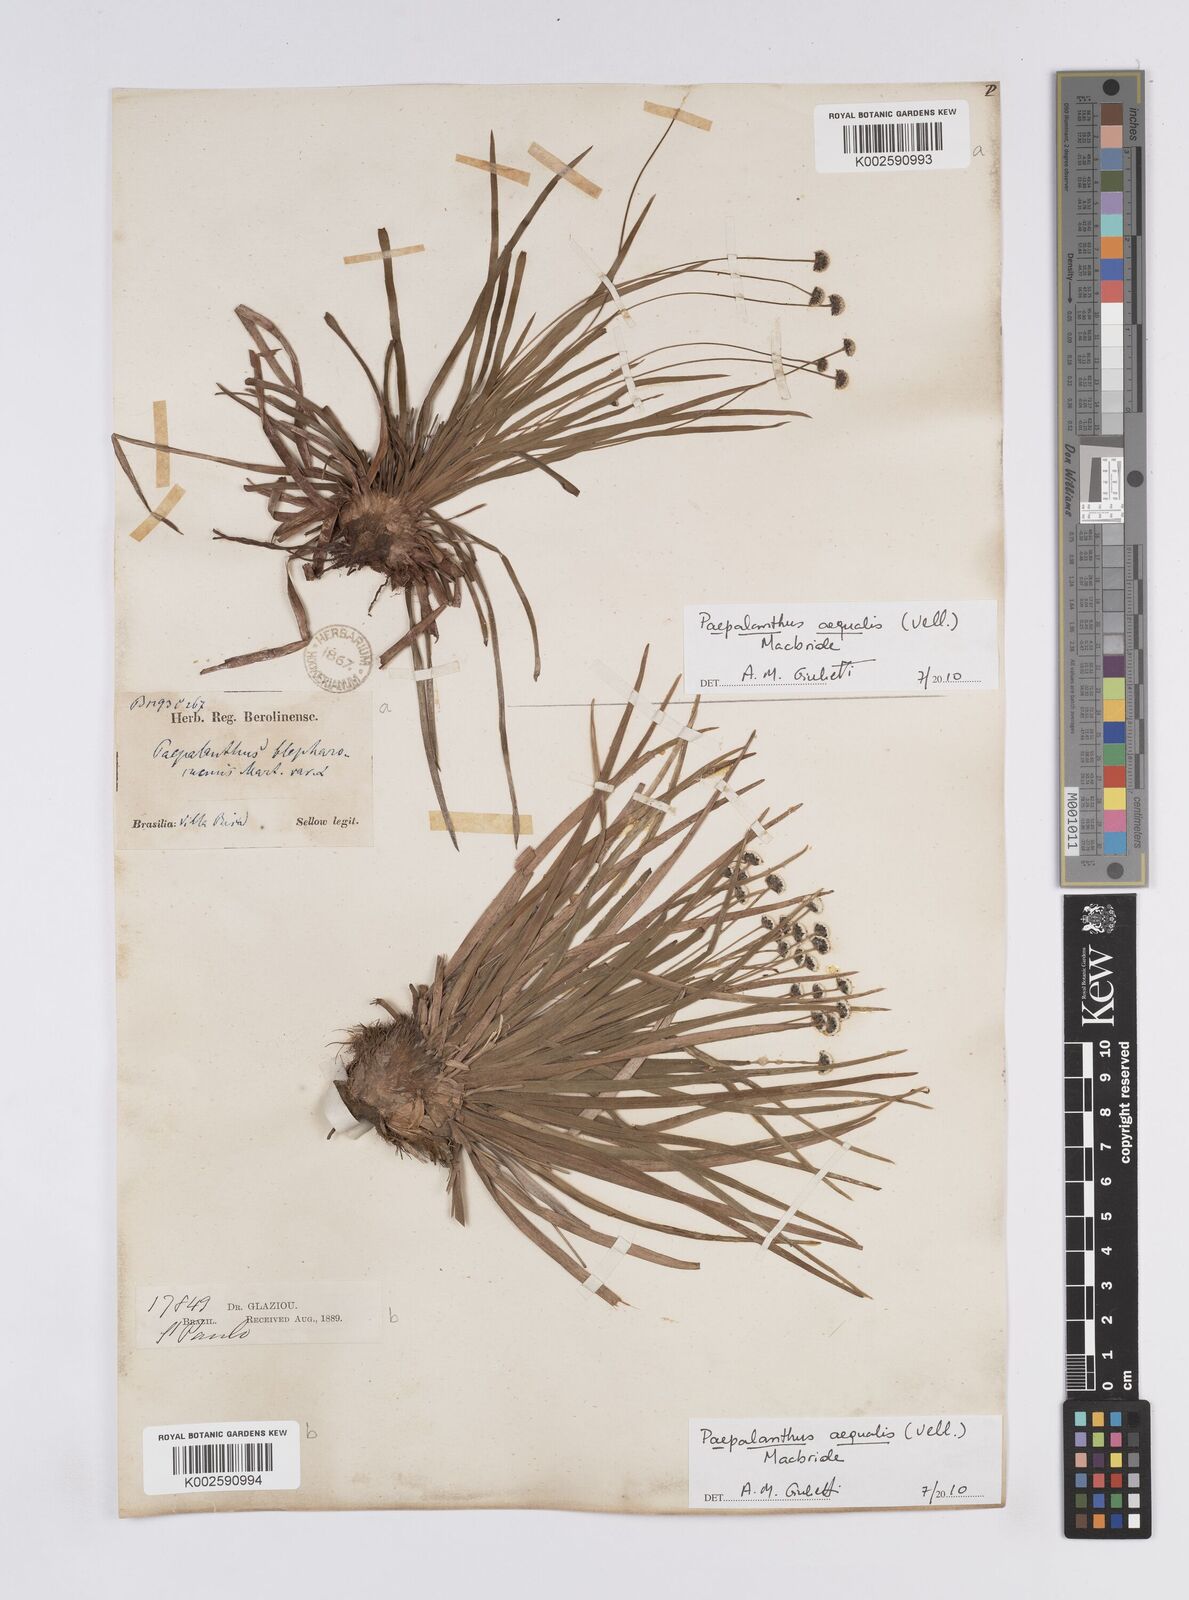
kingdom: Plantae
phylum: Tracheophyta
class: Liliopsida
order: Poales
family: Eriocaulaceae
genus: Paepalanthus
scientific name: Paepalanthus aequalis
